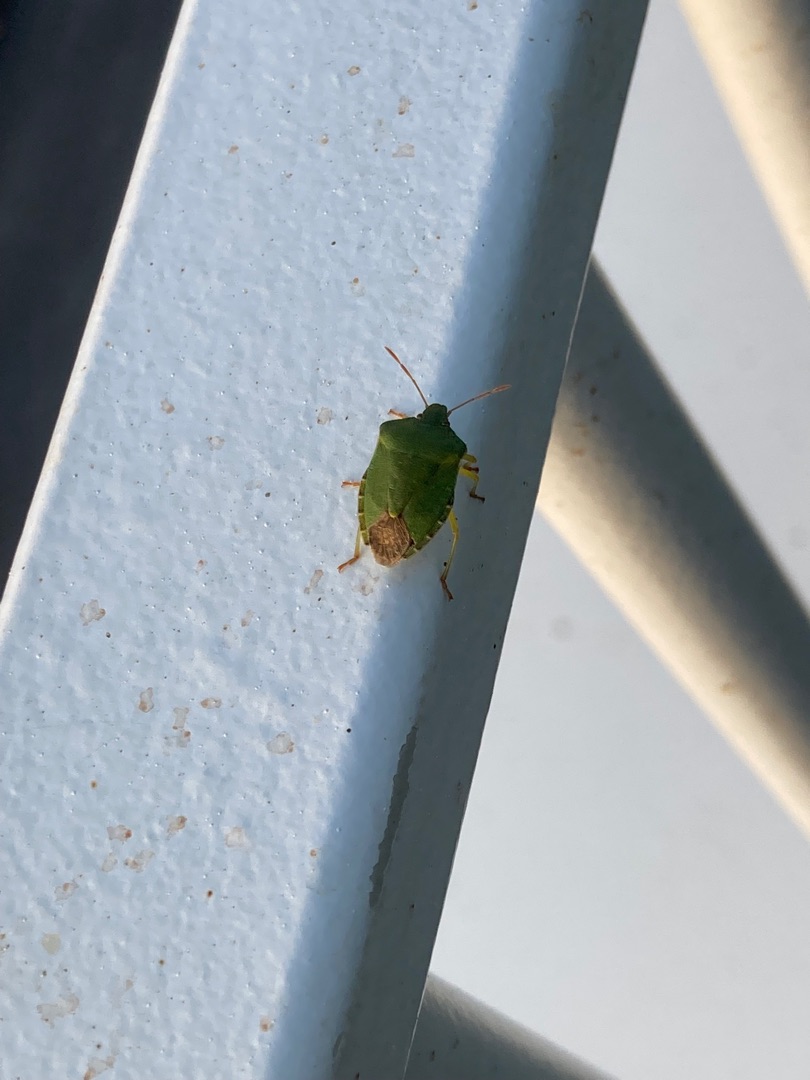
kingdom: Animalia
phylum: Arthropoda
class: Insecta
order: Hemiptera
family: Pentatomidae
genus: Palomena
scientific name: Palomena prasina
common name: Grøn bredtæge
